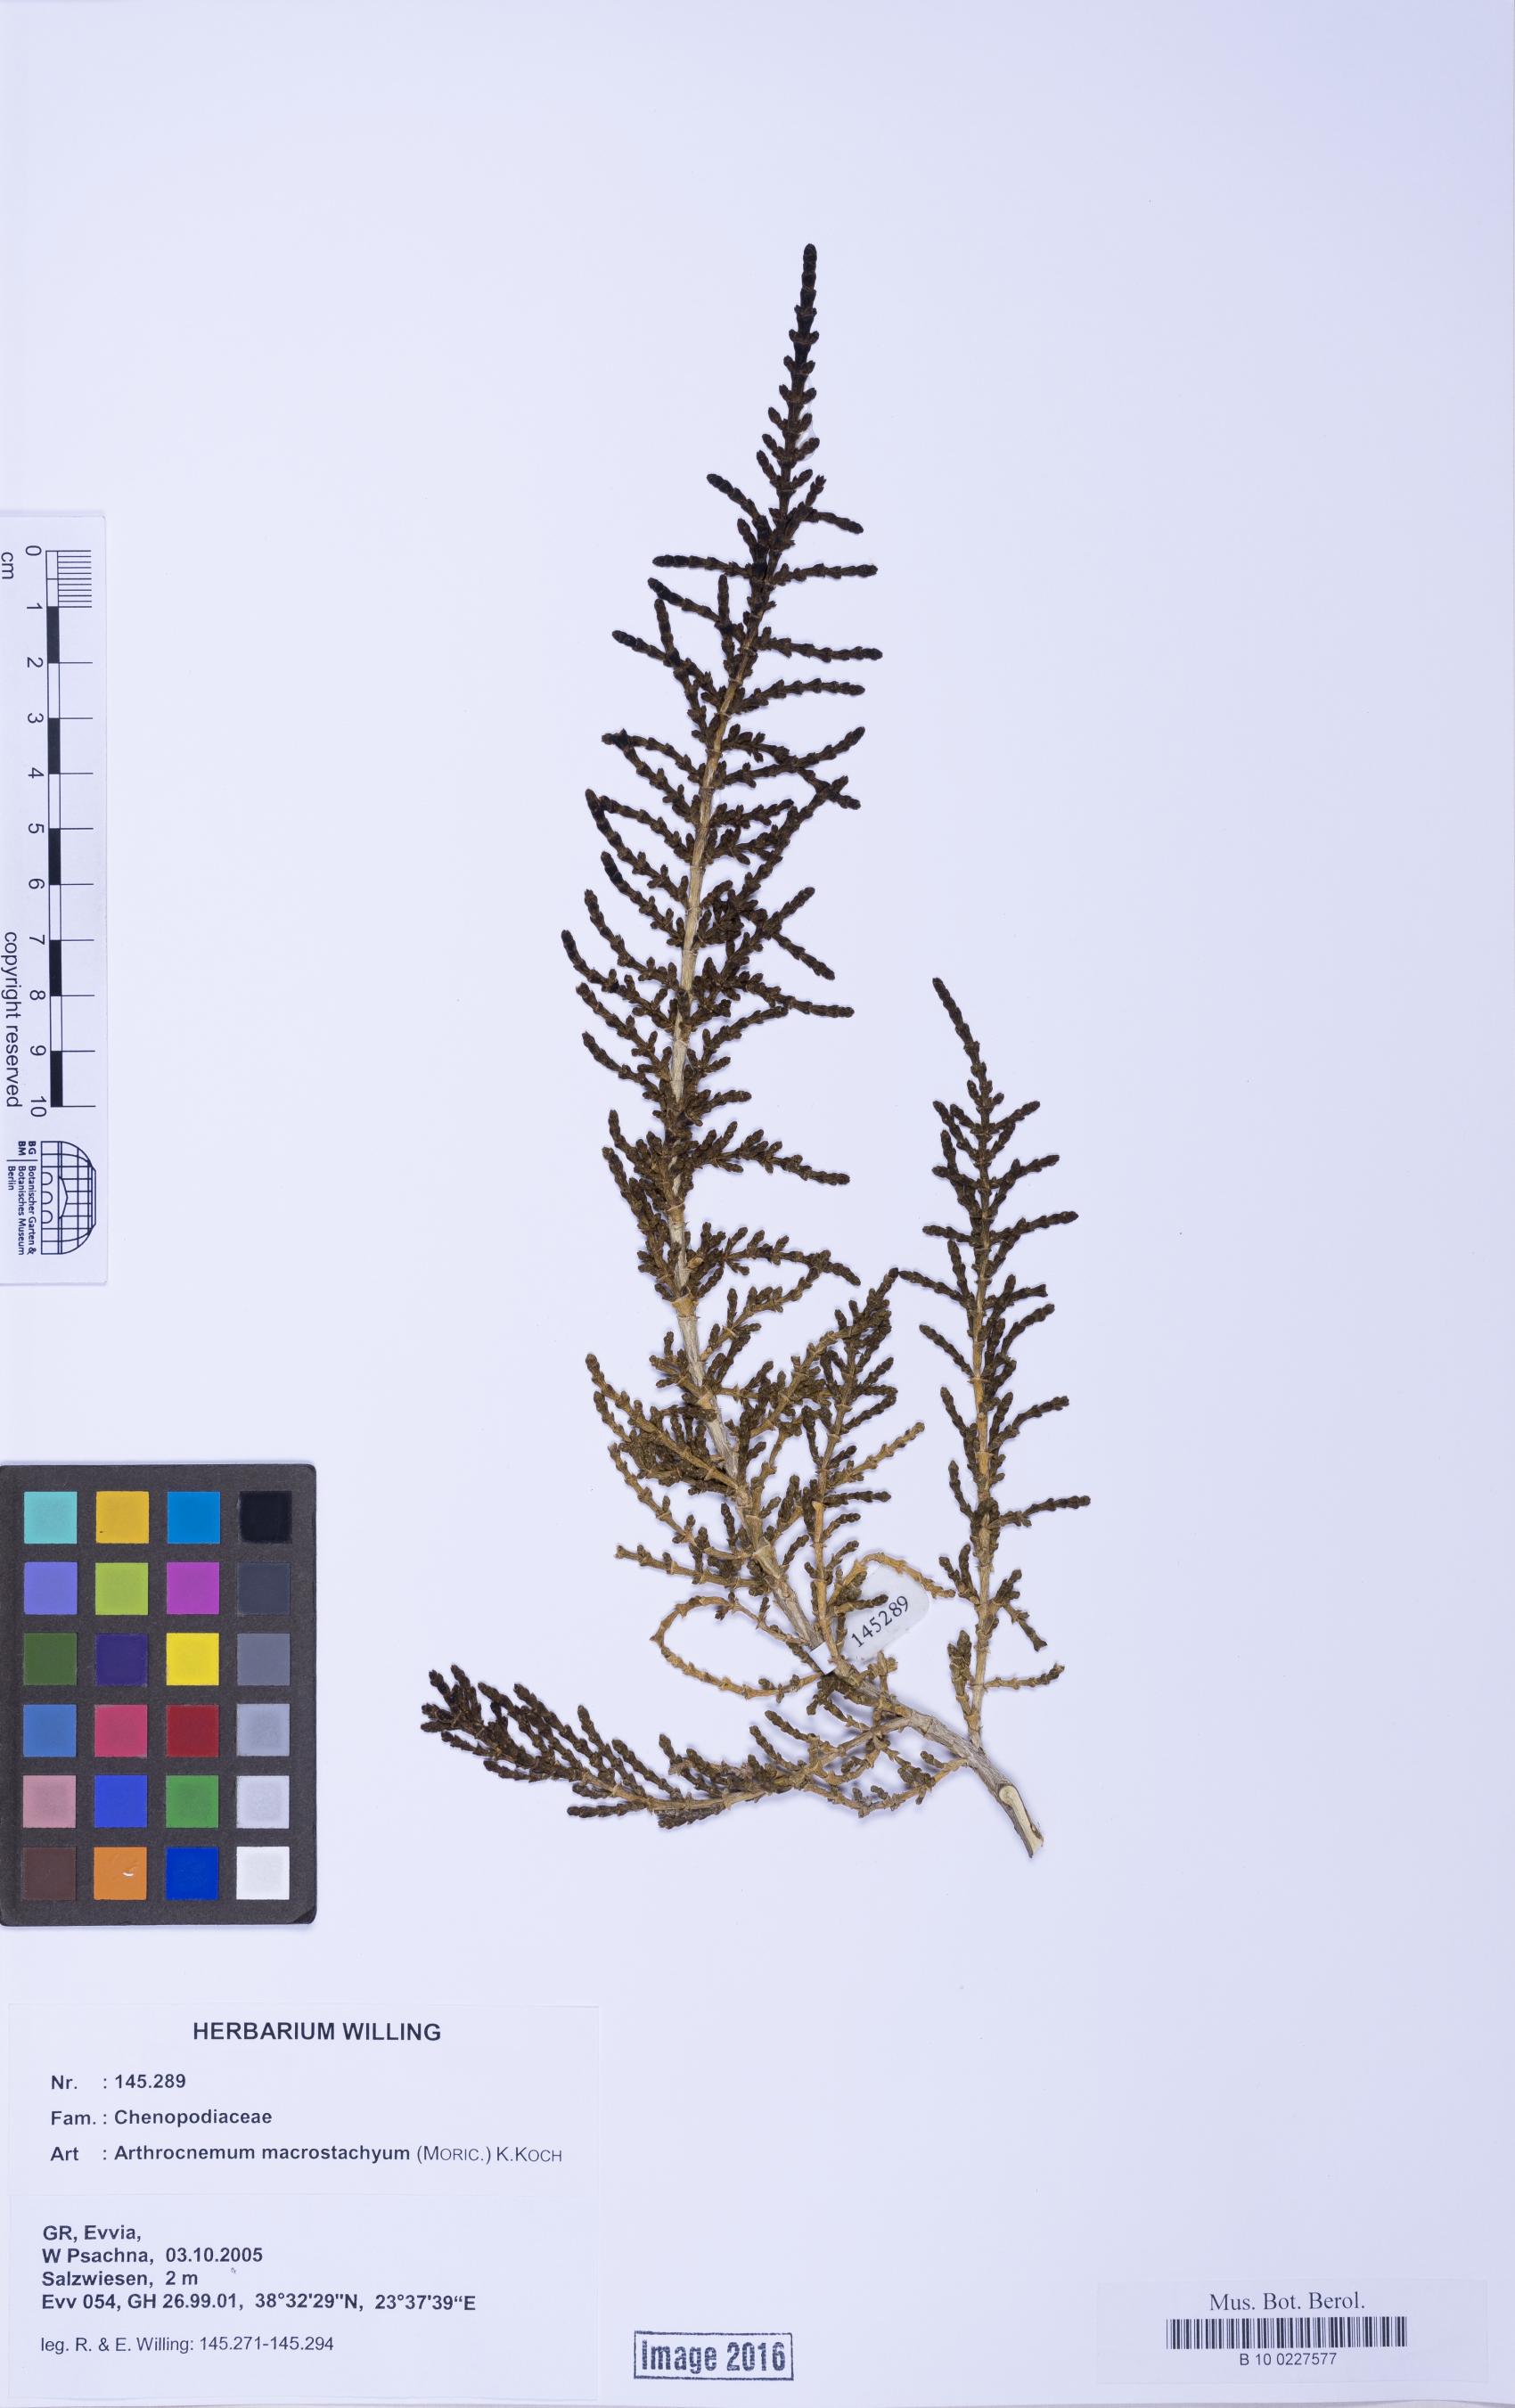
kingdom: Plantae
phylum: Tracheophyta
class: Magnoliopsida
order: Caryophyllales
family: Amaranthaceae
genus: Arthrocaulon
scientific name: Arthrocaulon macrostachyum
